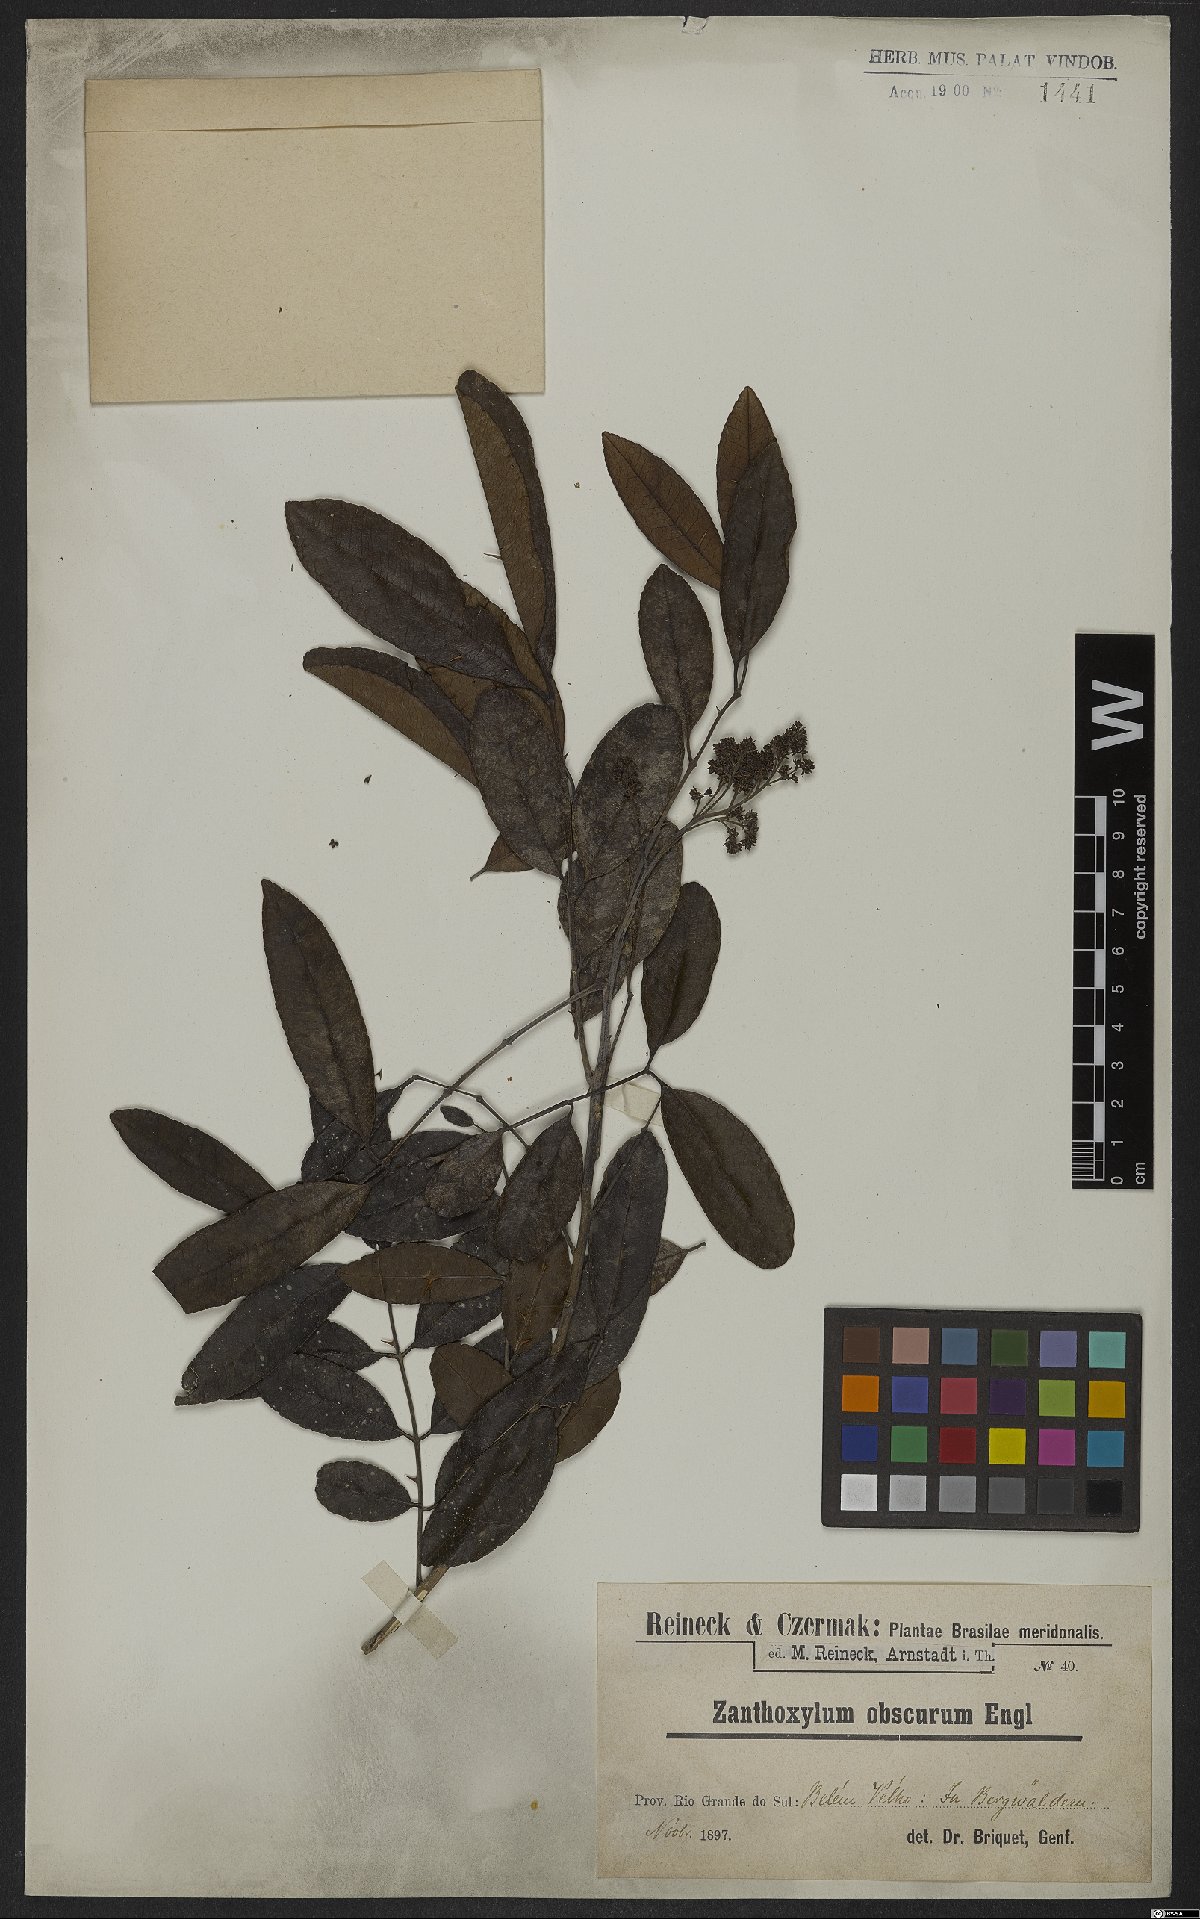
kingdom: Plantae
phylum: Tracheophyta
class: Magnoliopsida
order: Sapindales
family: Rutaceae
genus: Zanthoxylum
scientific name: Zanthoxylum rhoifolium
